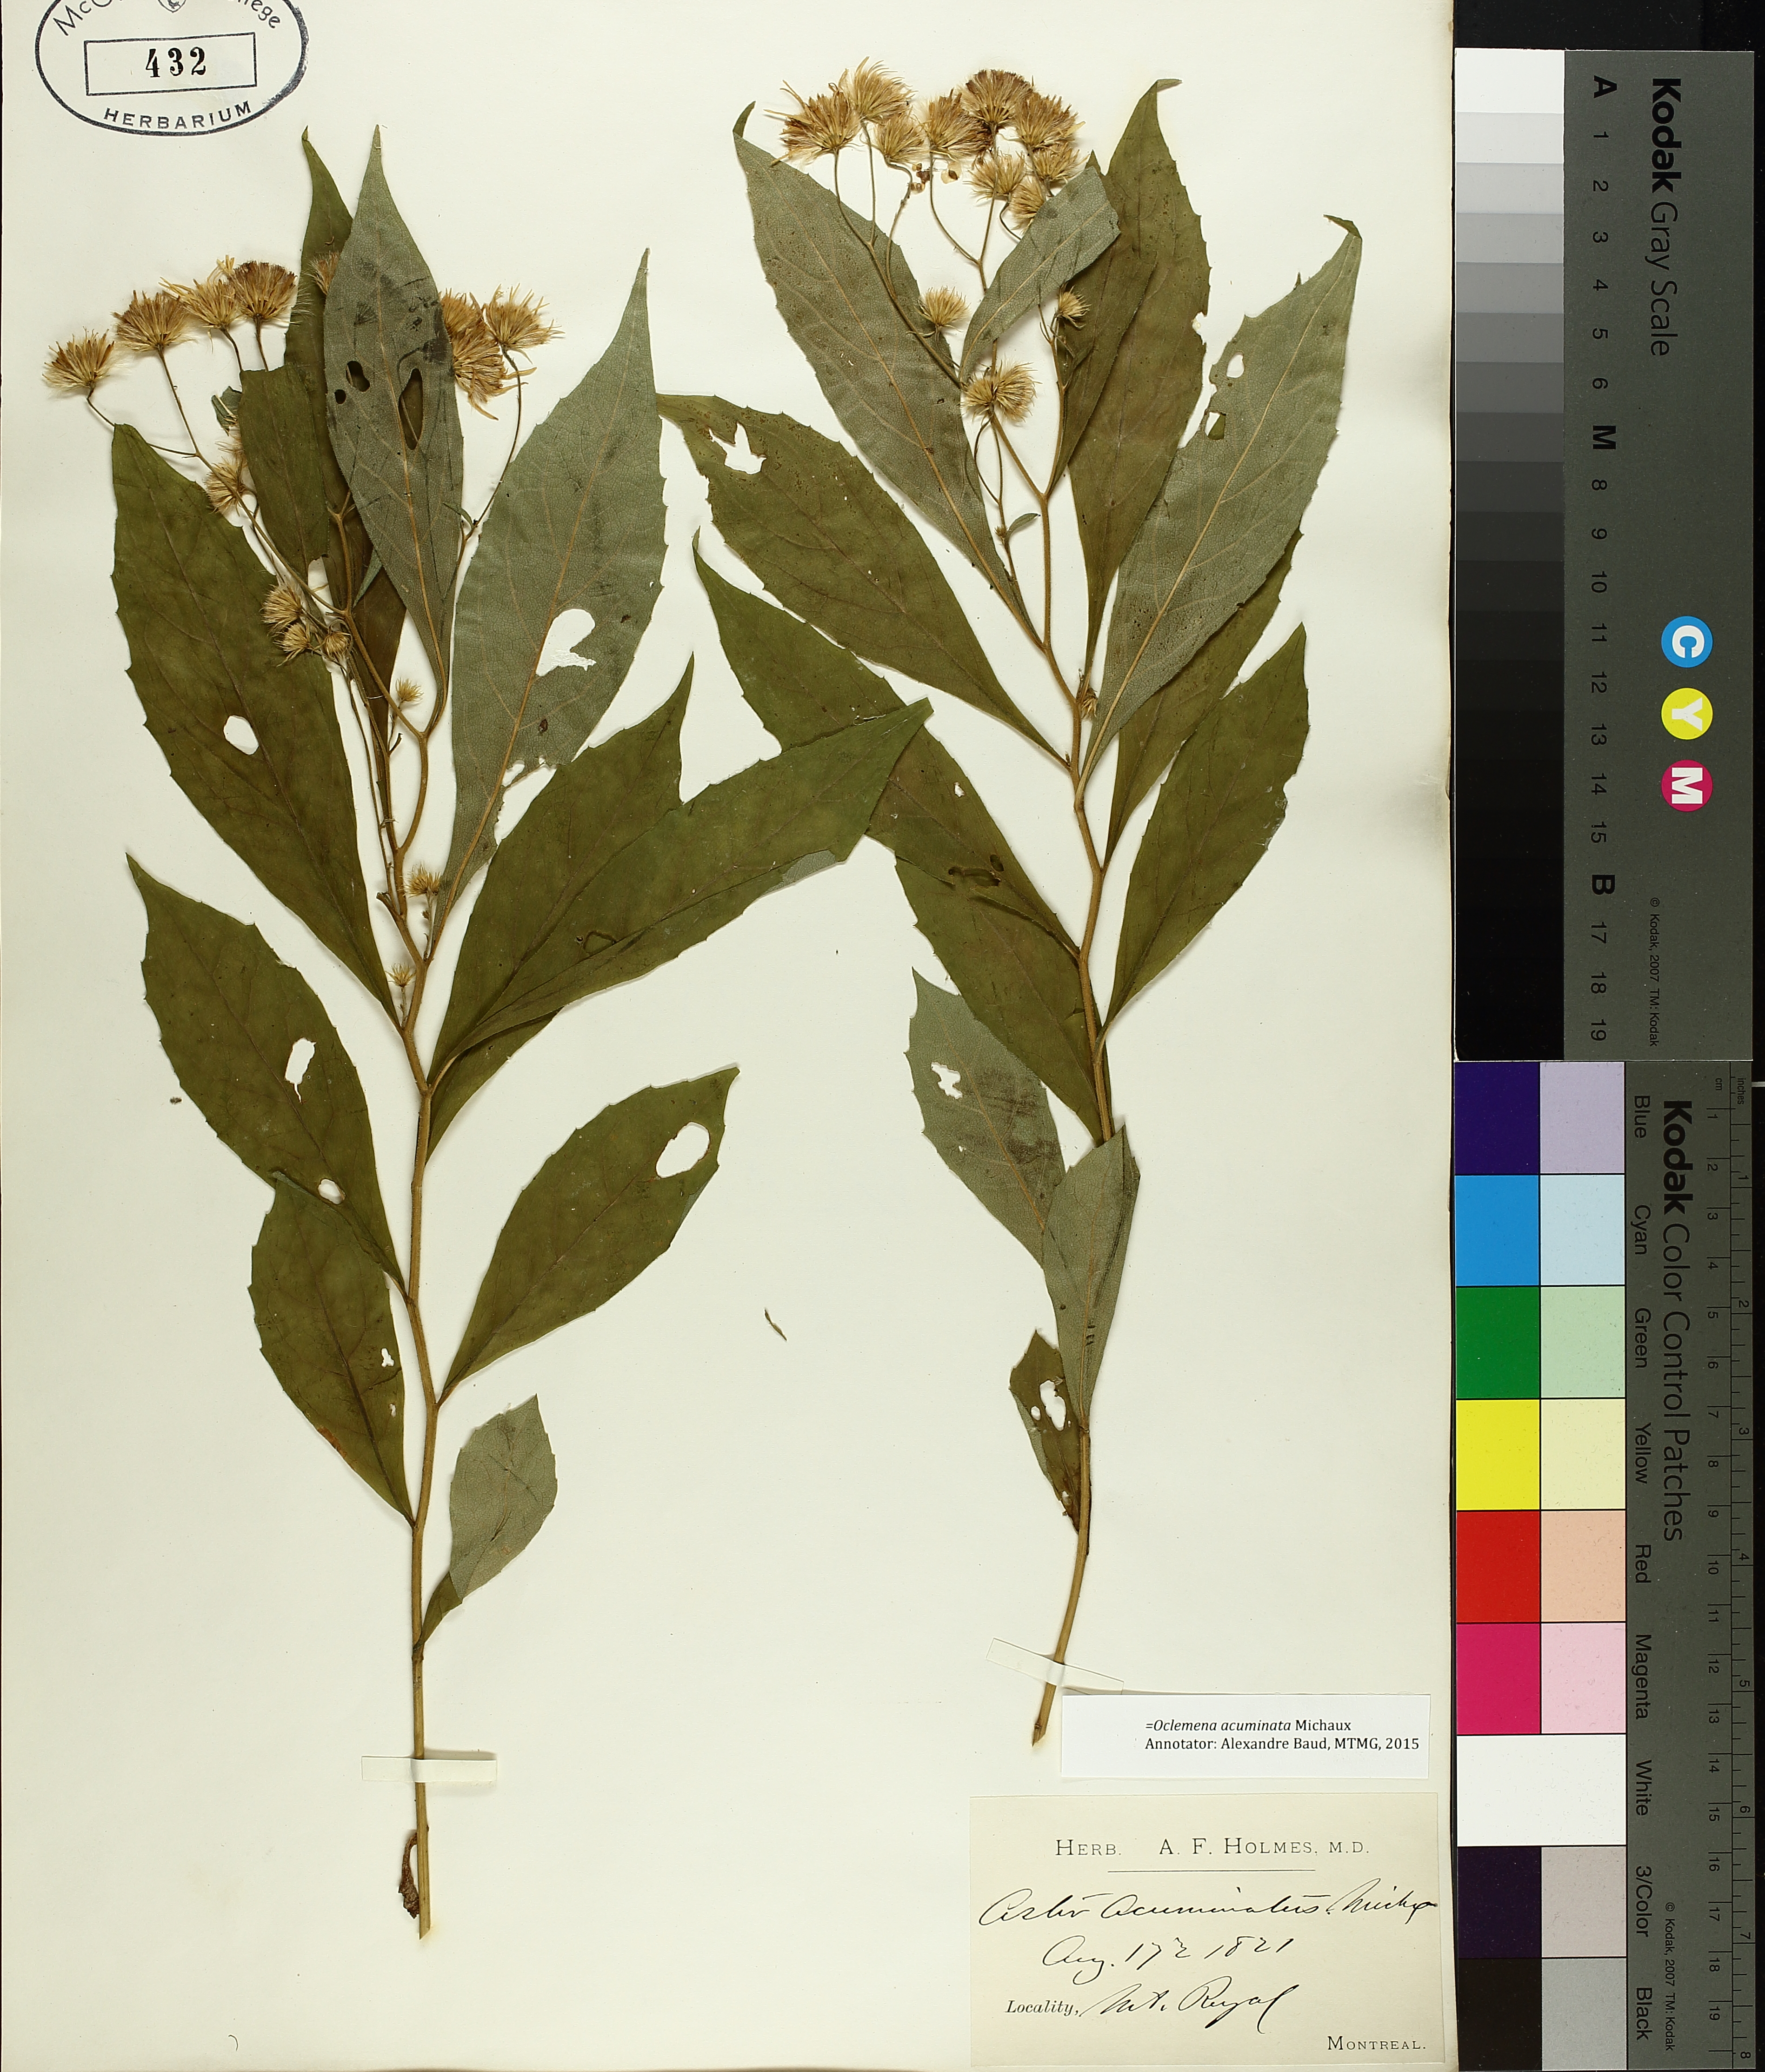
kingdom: Plantae
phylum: Tracheophyta
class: Magnoliopsida
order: Asterales
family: Asteraceae
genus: Oclemena
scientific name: Oclemena acuminata
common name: Mountain aster
